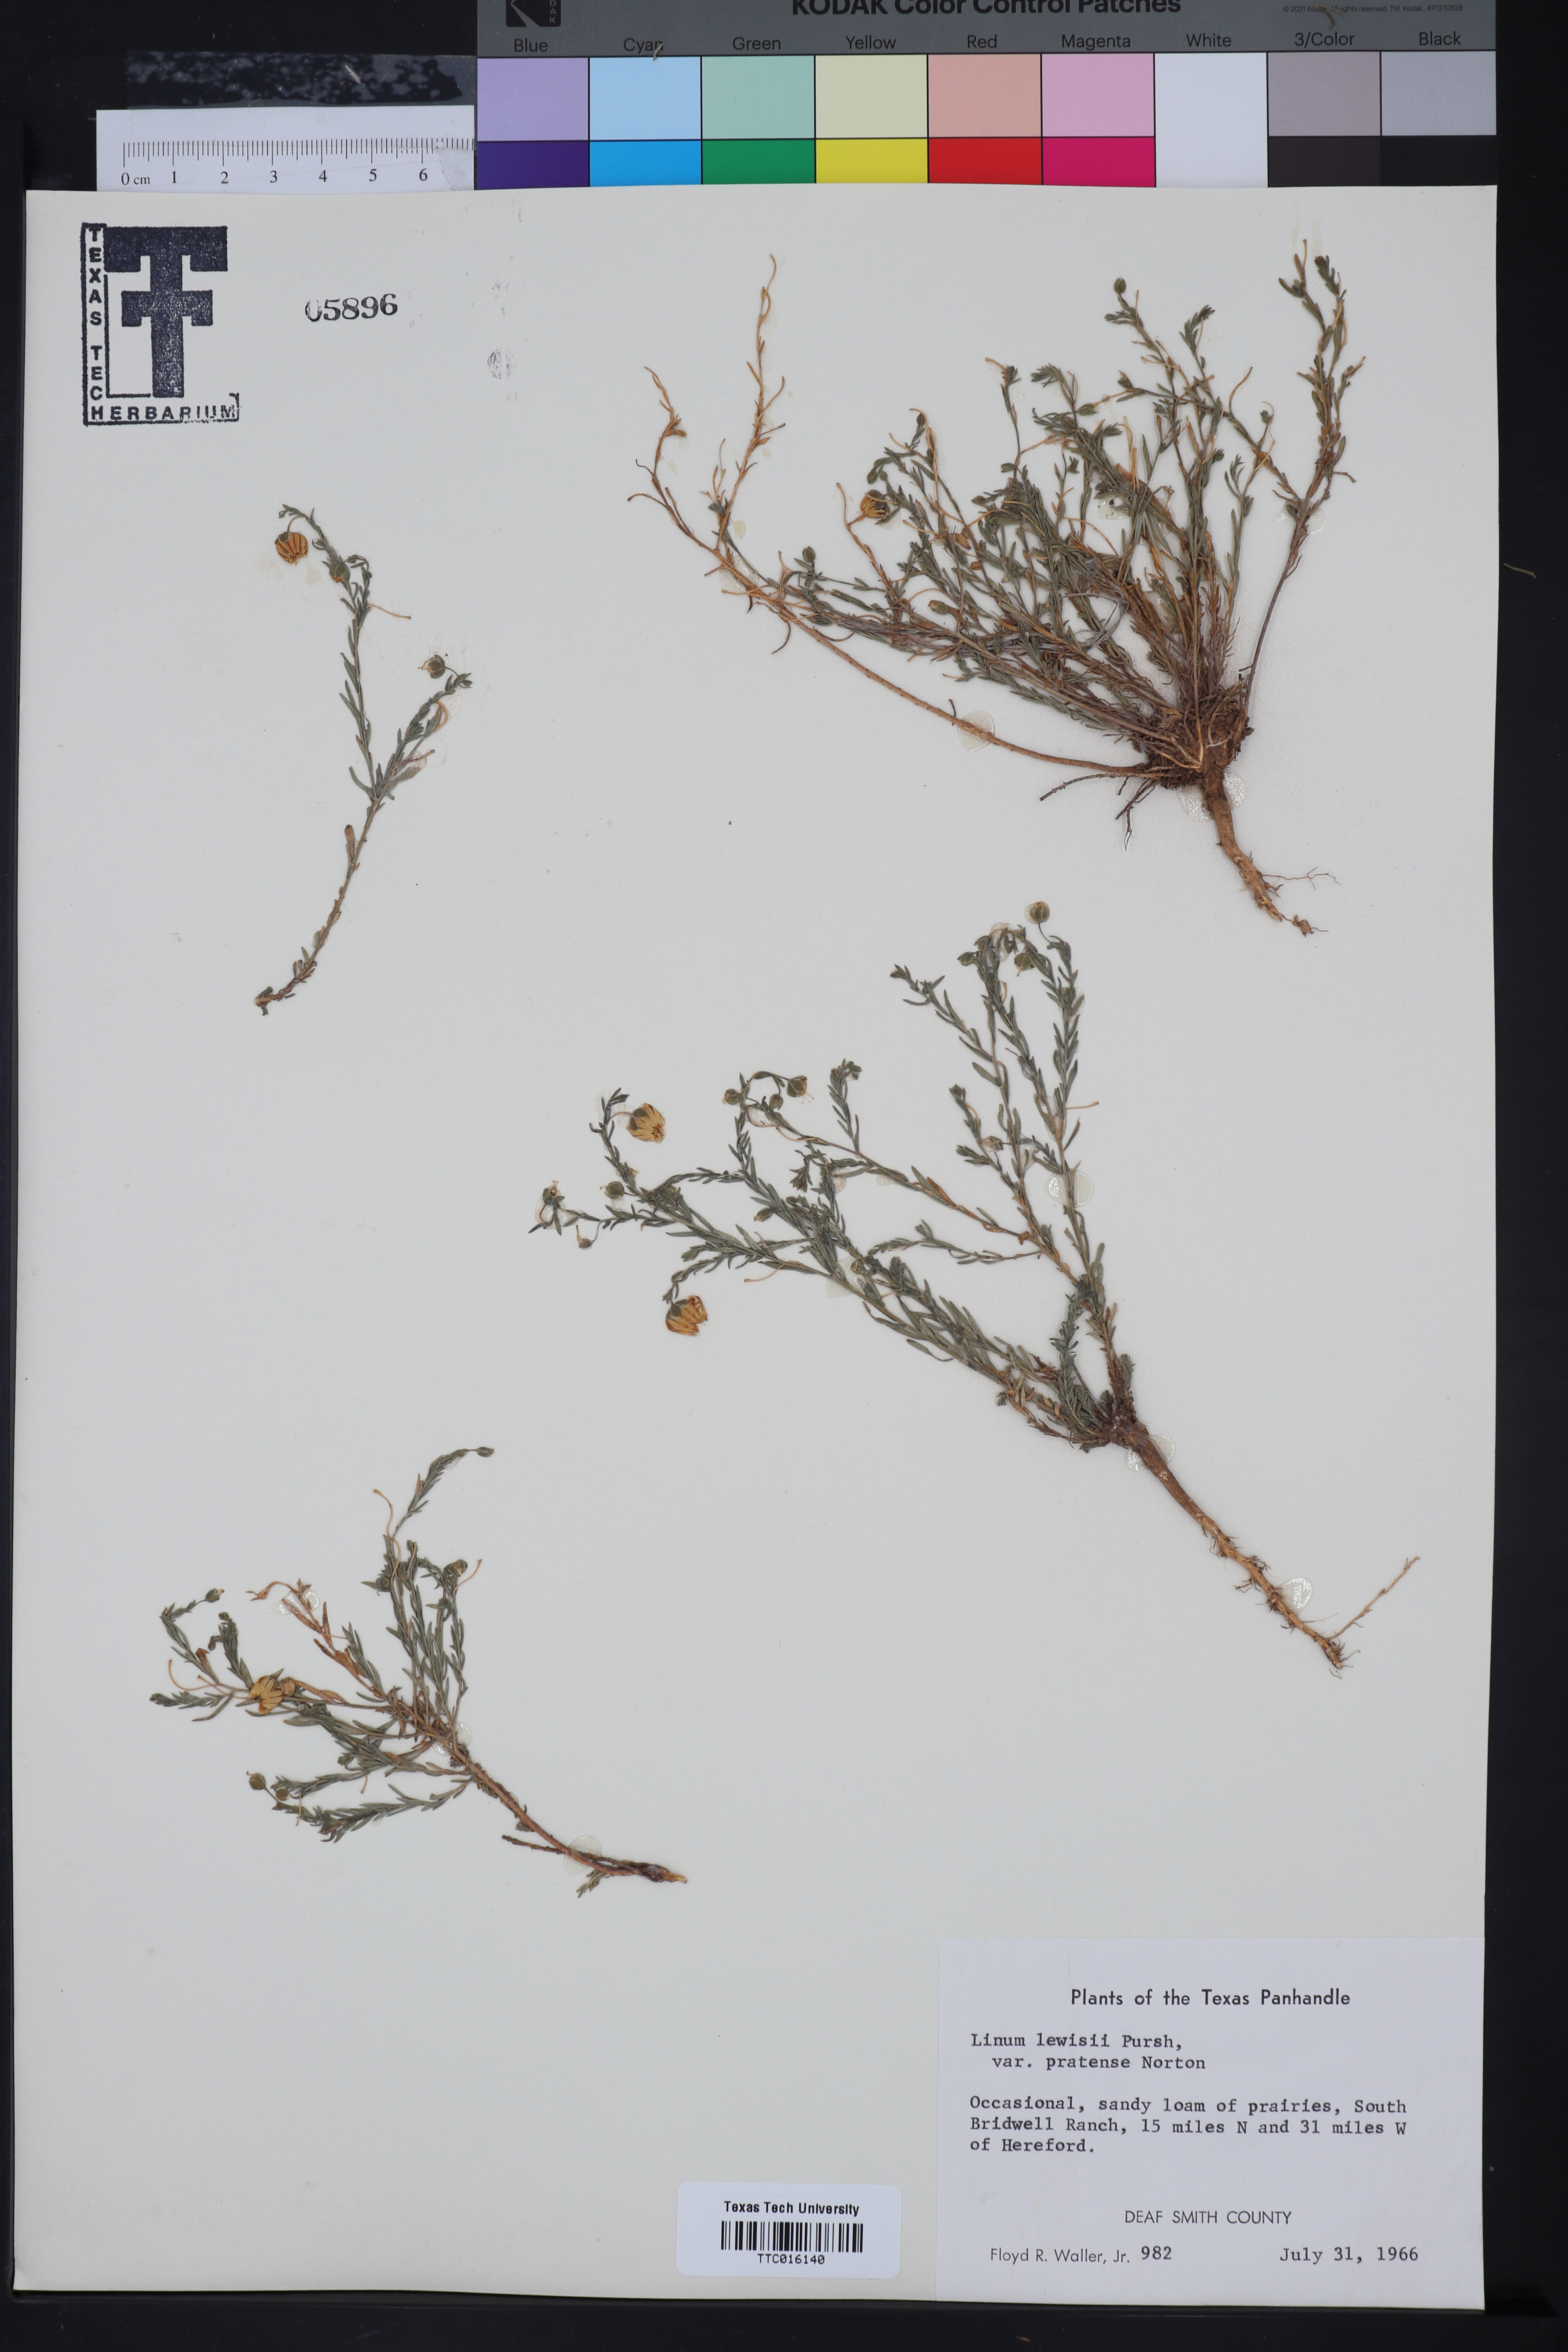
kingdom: Plantae
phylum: Tracheophyta
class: Magnoliopsida
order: Malpighiales
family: Linaceae
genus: Linum
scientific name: Linum pratense
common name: Norton's flax
